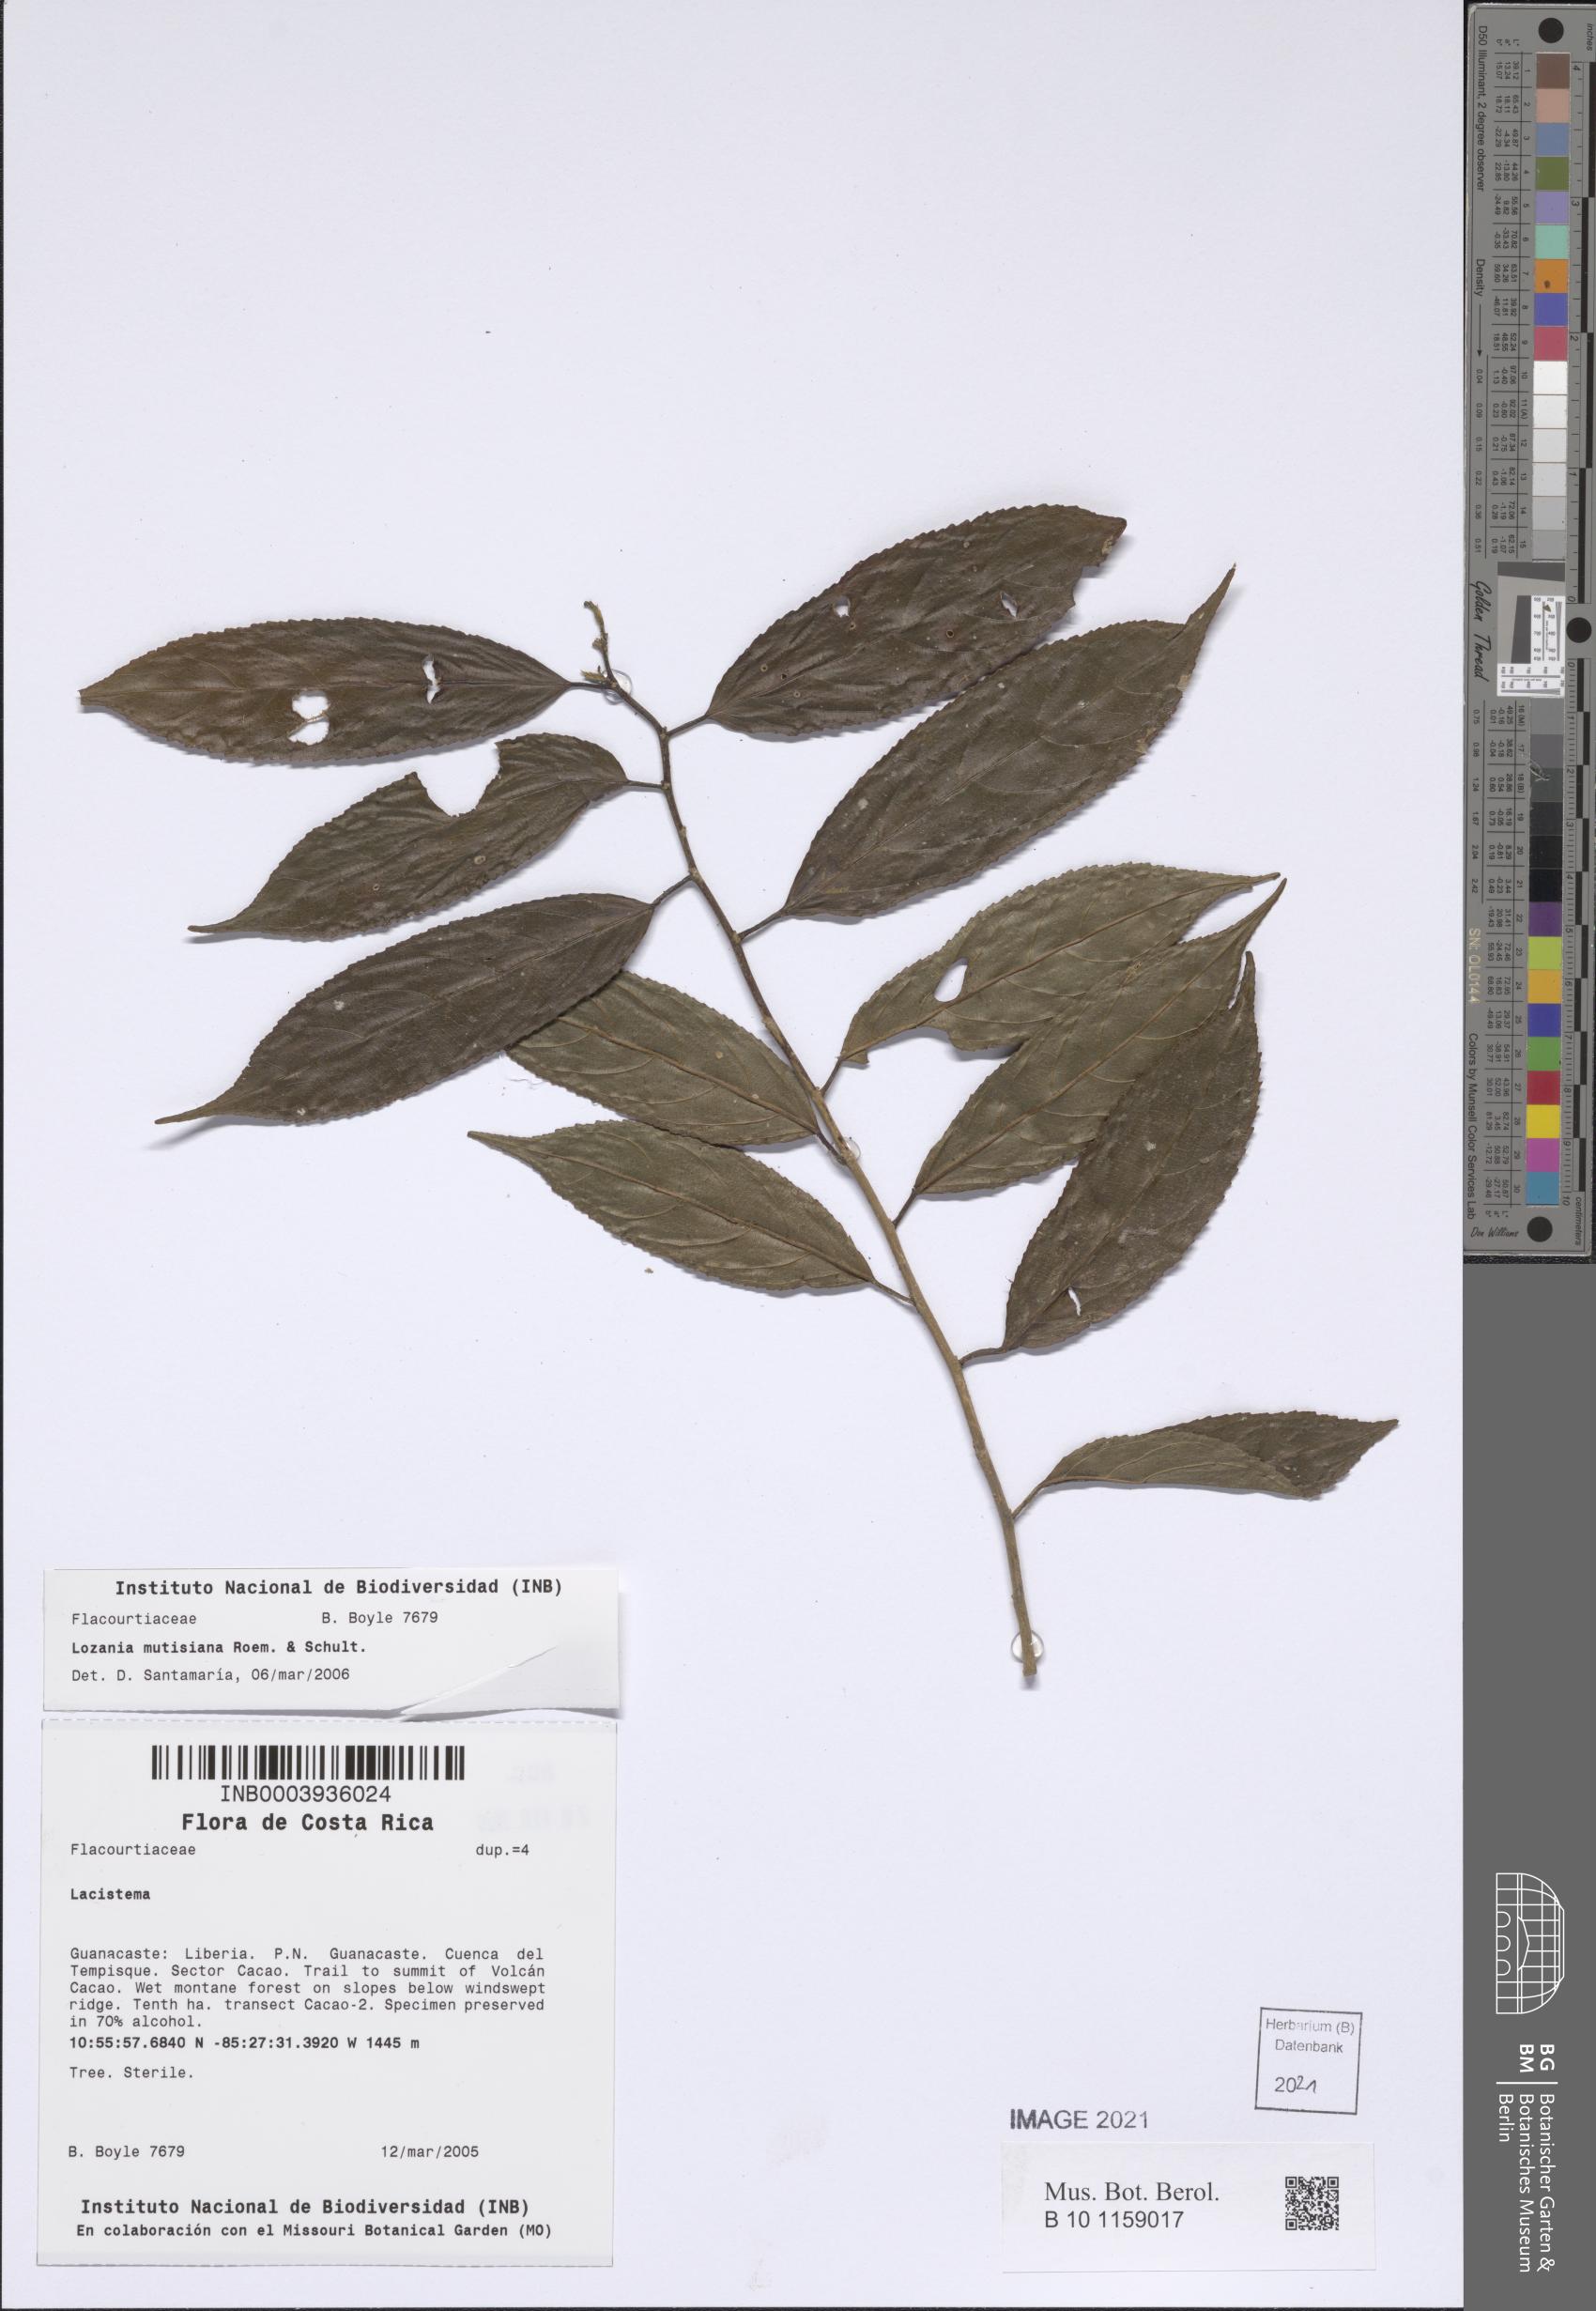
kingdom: Plantae
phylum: Tracheophyta
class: Magnoliopsida
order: Malpighiales
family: Lacistemataceae
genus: Lozania
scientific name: Lozania mutisiana
